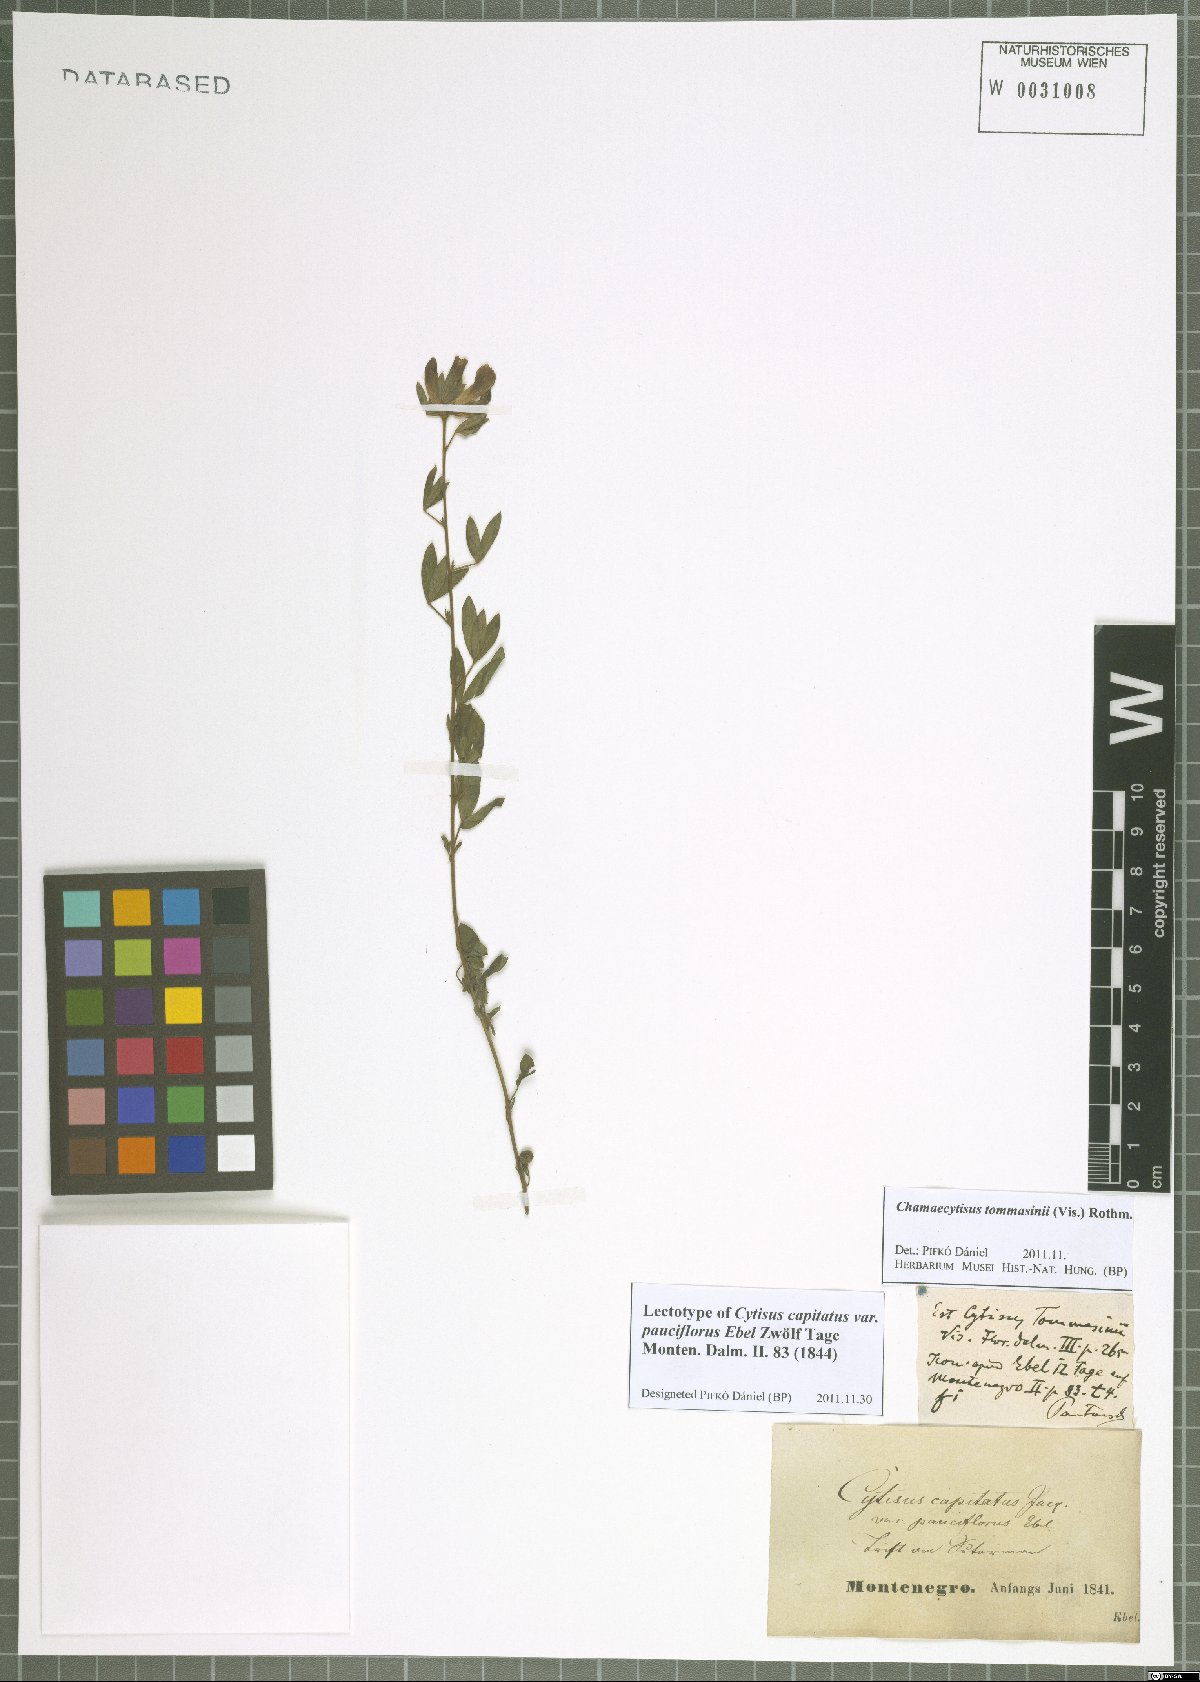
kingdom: Plantae
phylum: Tracheophyta
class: Magnoliopsida
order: Fabales
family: Fabaceae
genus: Chamaecytisus
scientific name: Chamaecytisus tommasinii
